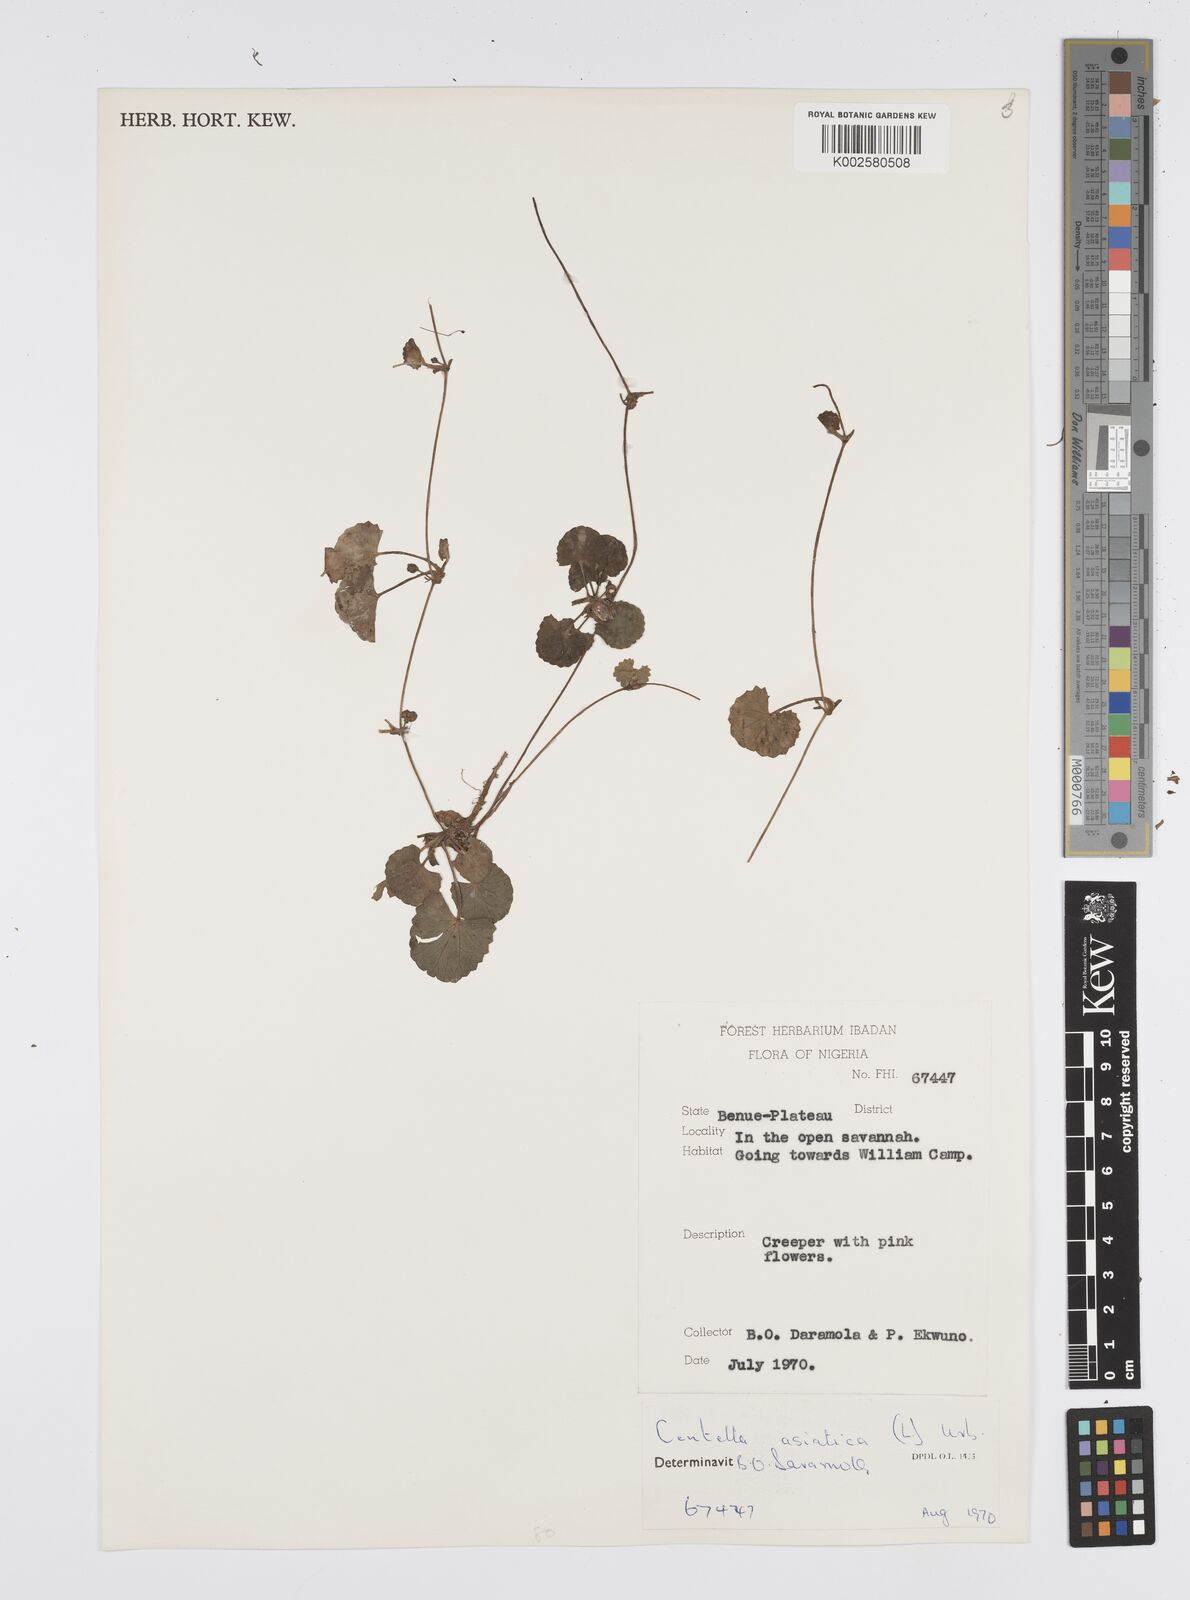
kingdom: Plantae
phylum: Tracheophyta
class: Magnoliopsida
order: Apiales
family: Apiaceae
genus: Centella
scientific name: Centella asiatica
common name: Spadeleaf
